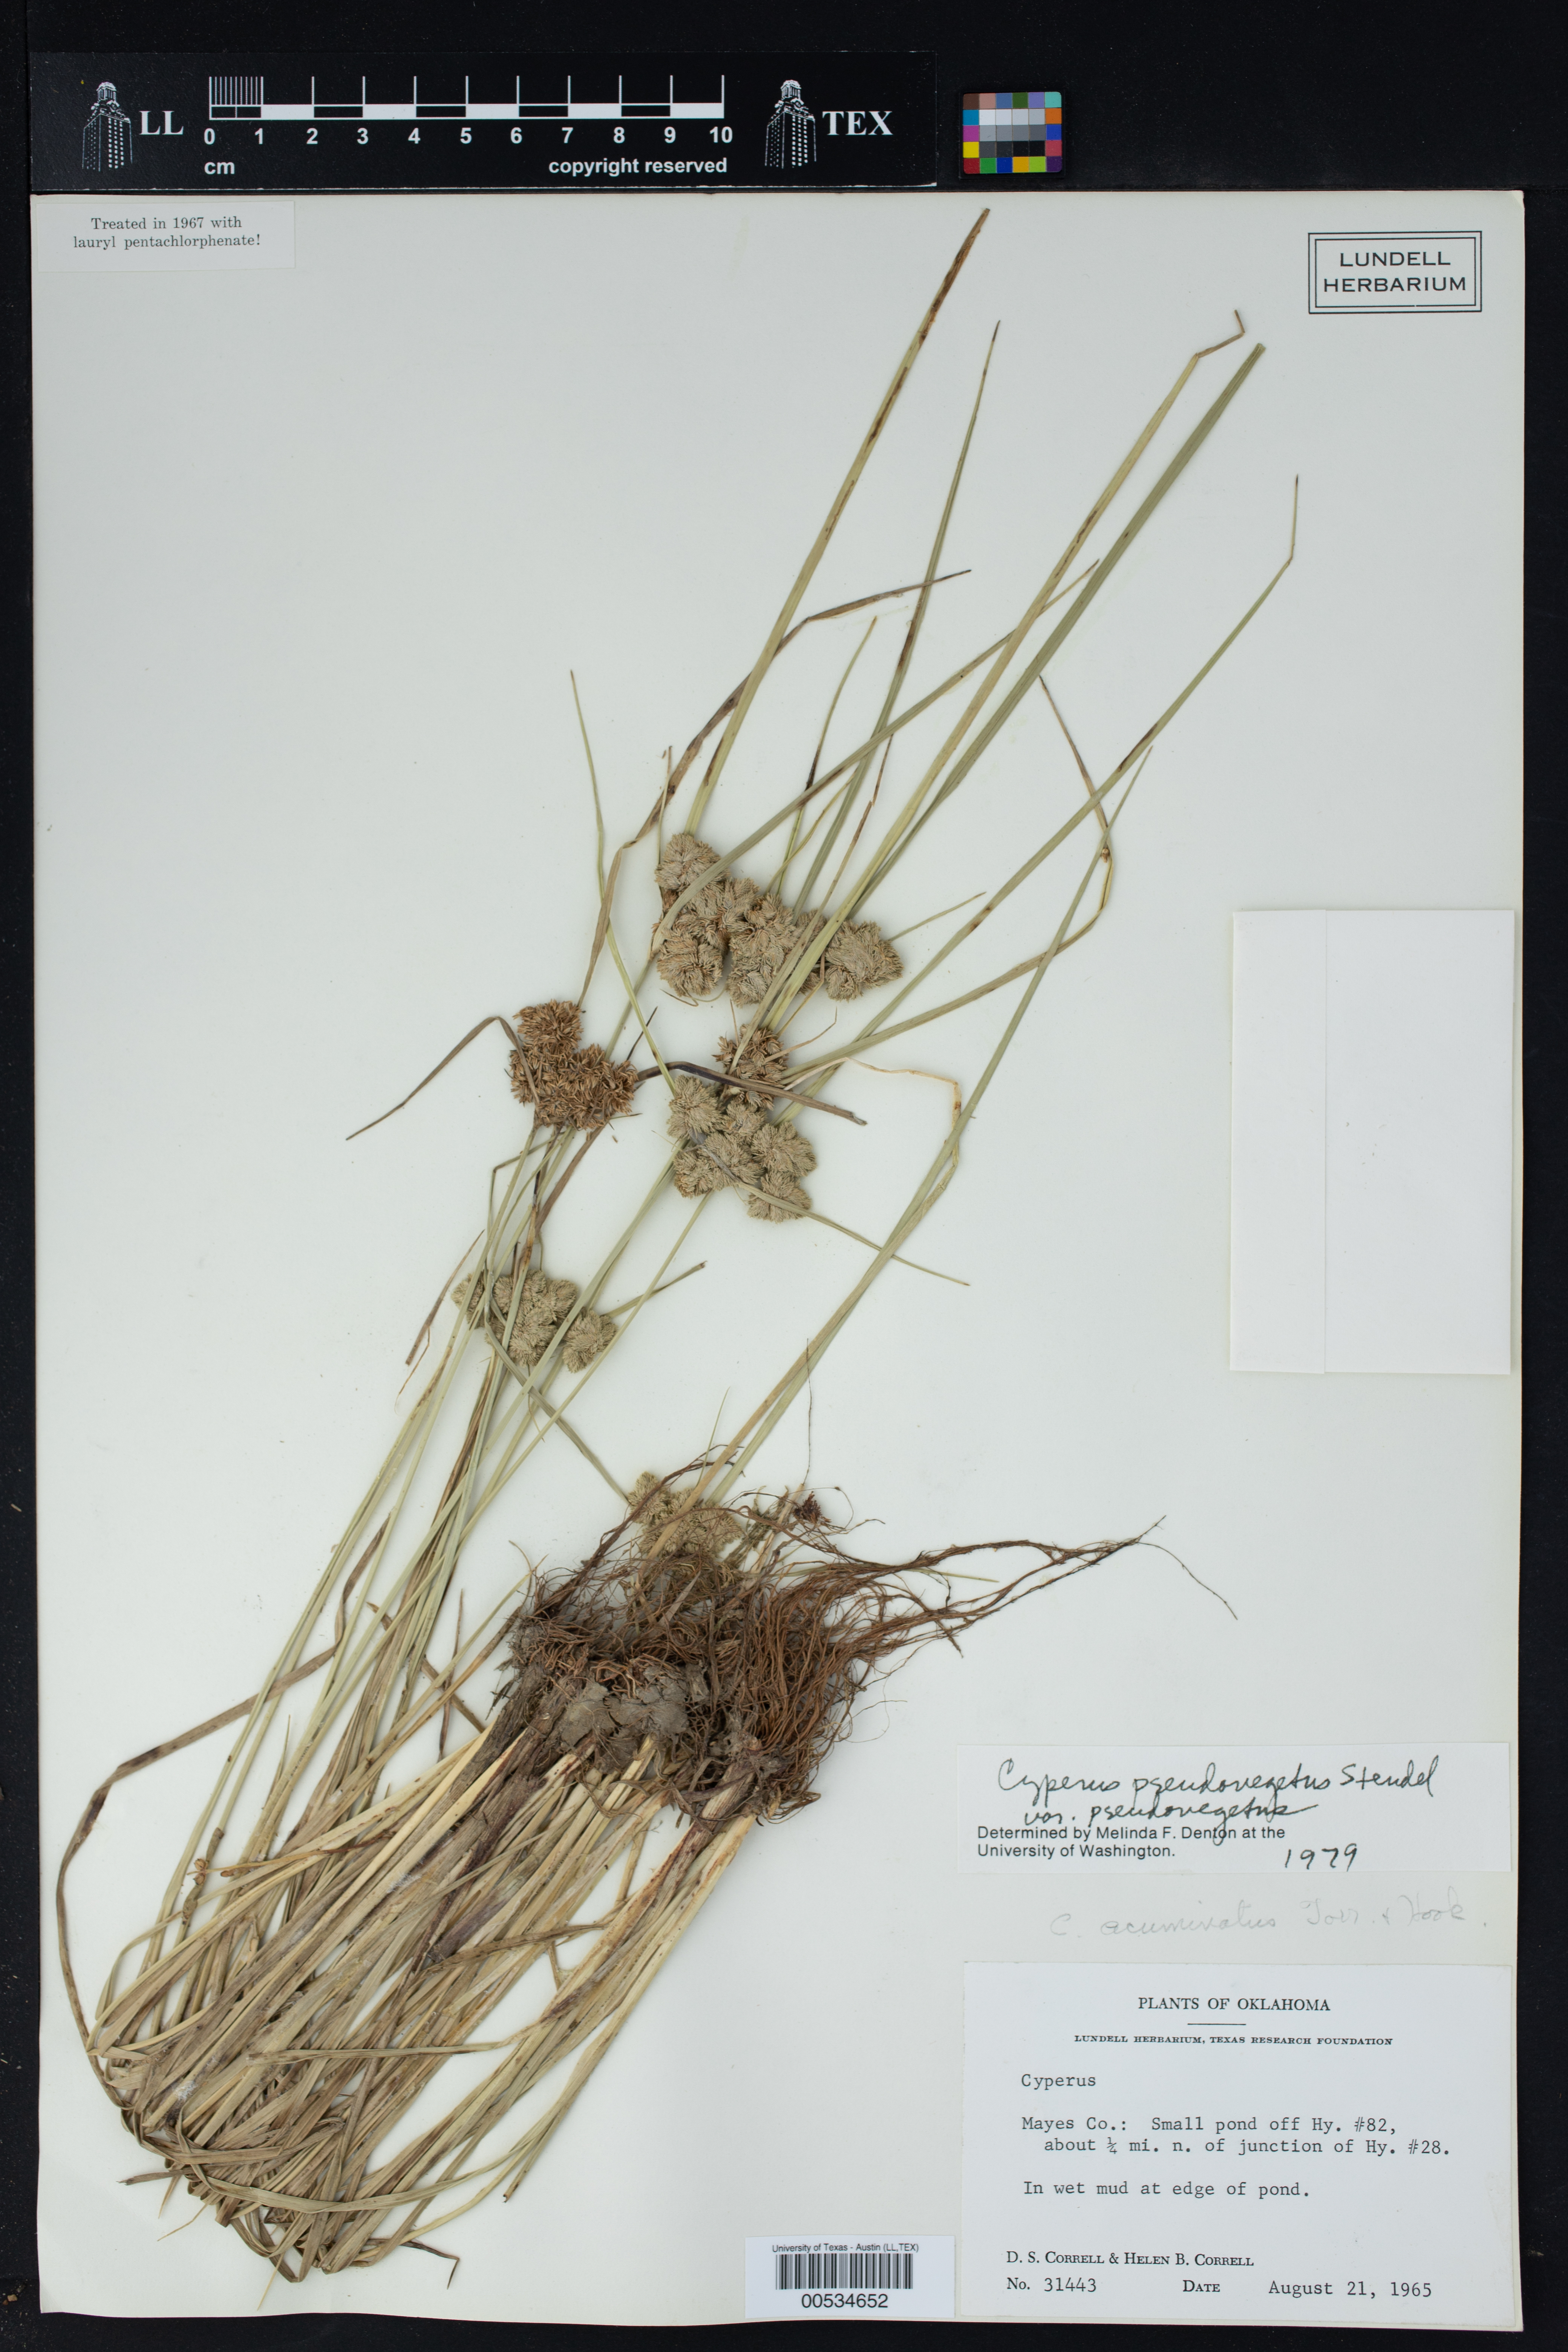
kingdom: Plantae
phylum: Tracheophyta
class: Liliopsida
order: Poales
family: Cyperaceae
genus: Cyperus
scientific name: Cyperus pseudovegetus
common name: Marsh flat sedge
